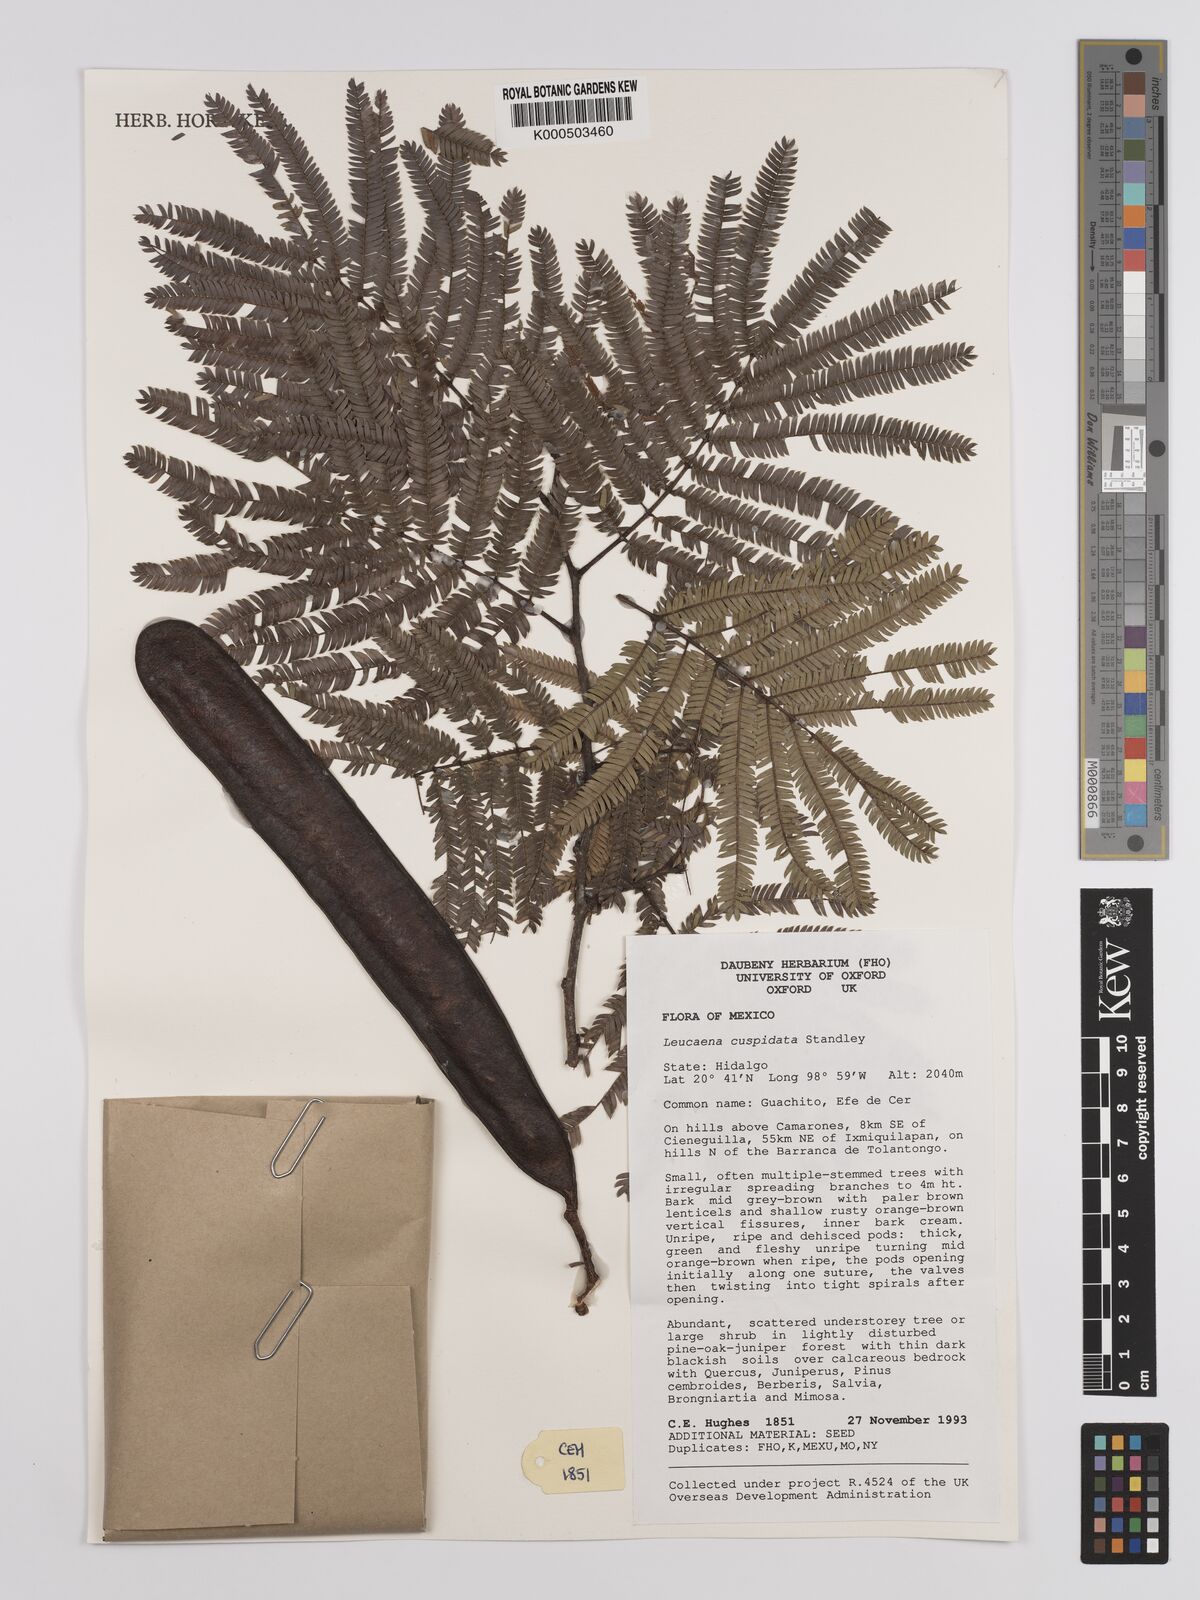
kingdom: Plantae
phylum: Tracheophyta
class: Magnoliopsida
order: Fabales
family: Fabaceae
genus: Leucaena
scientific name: Leucaena cuspidata
